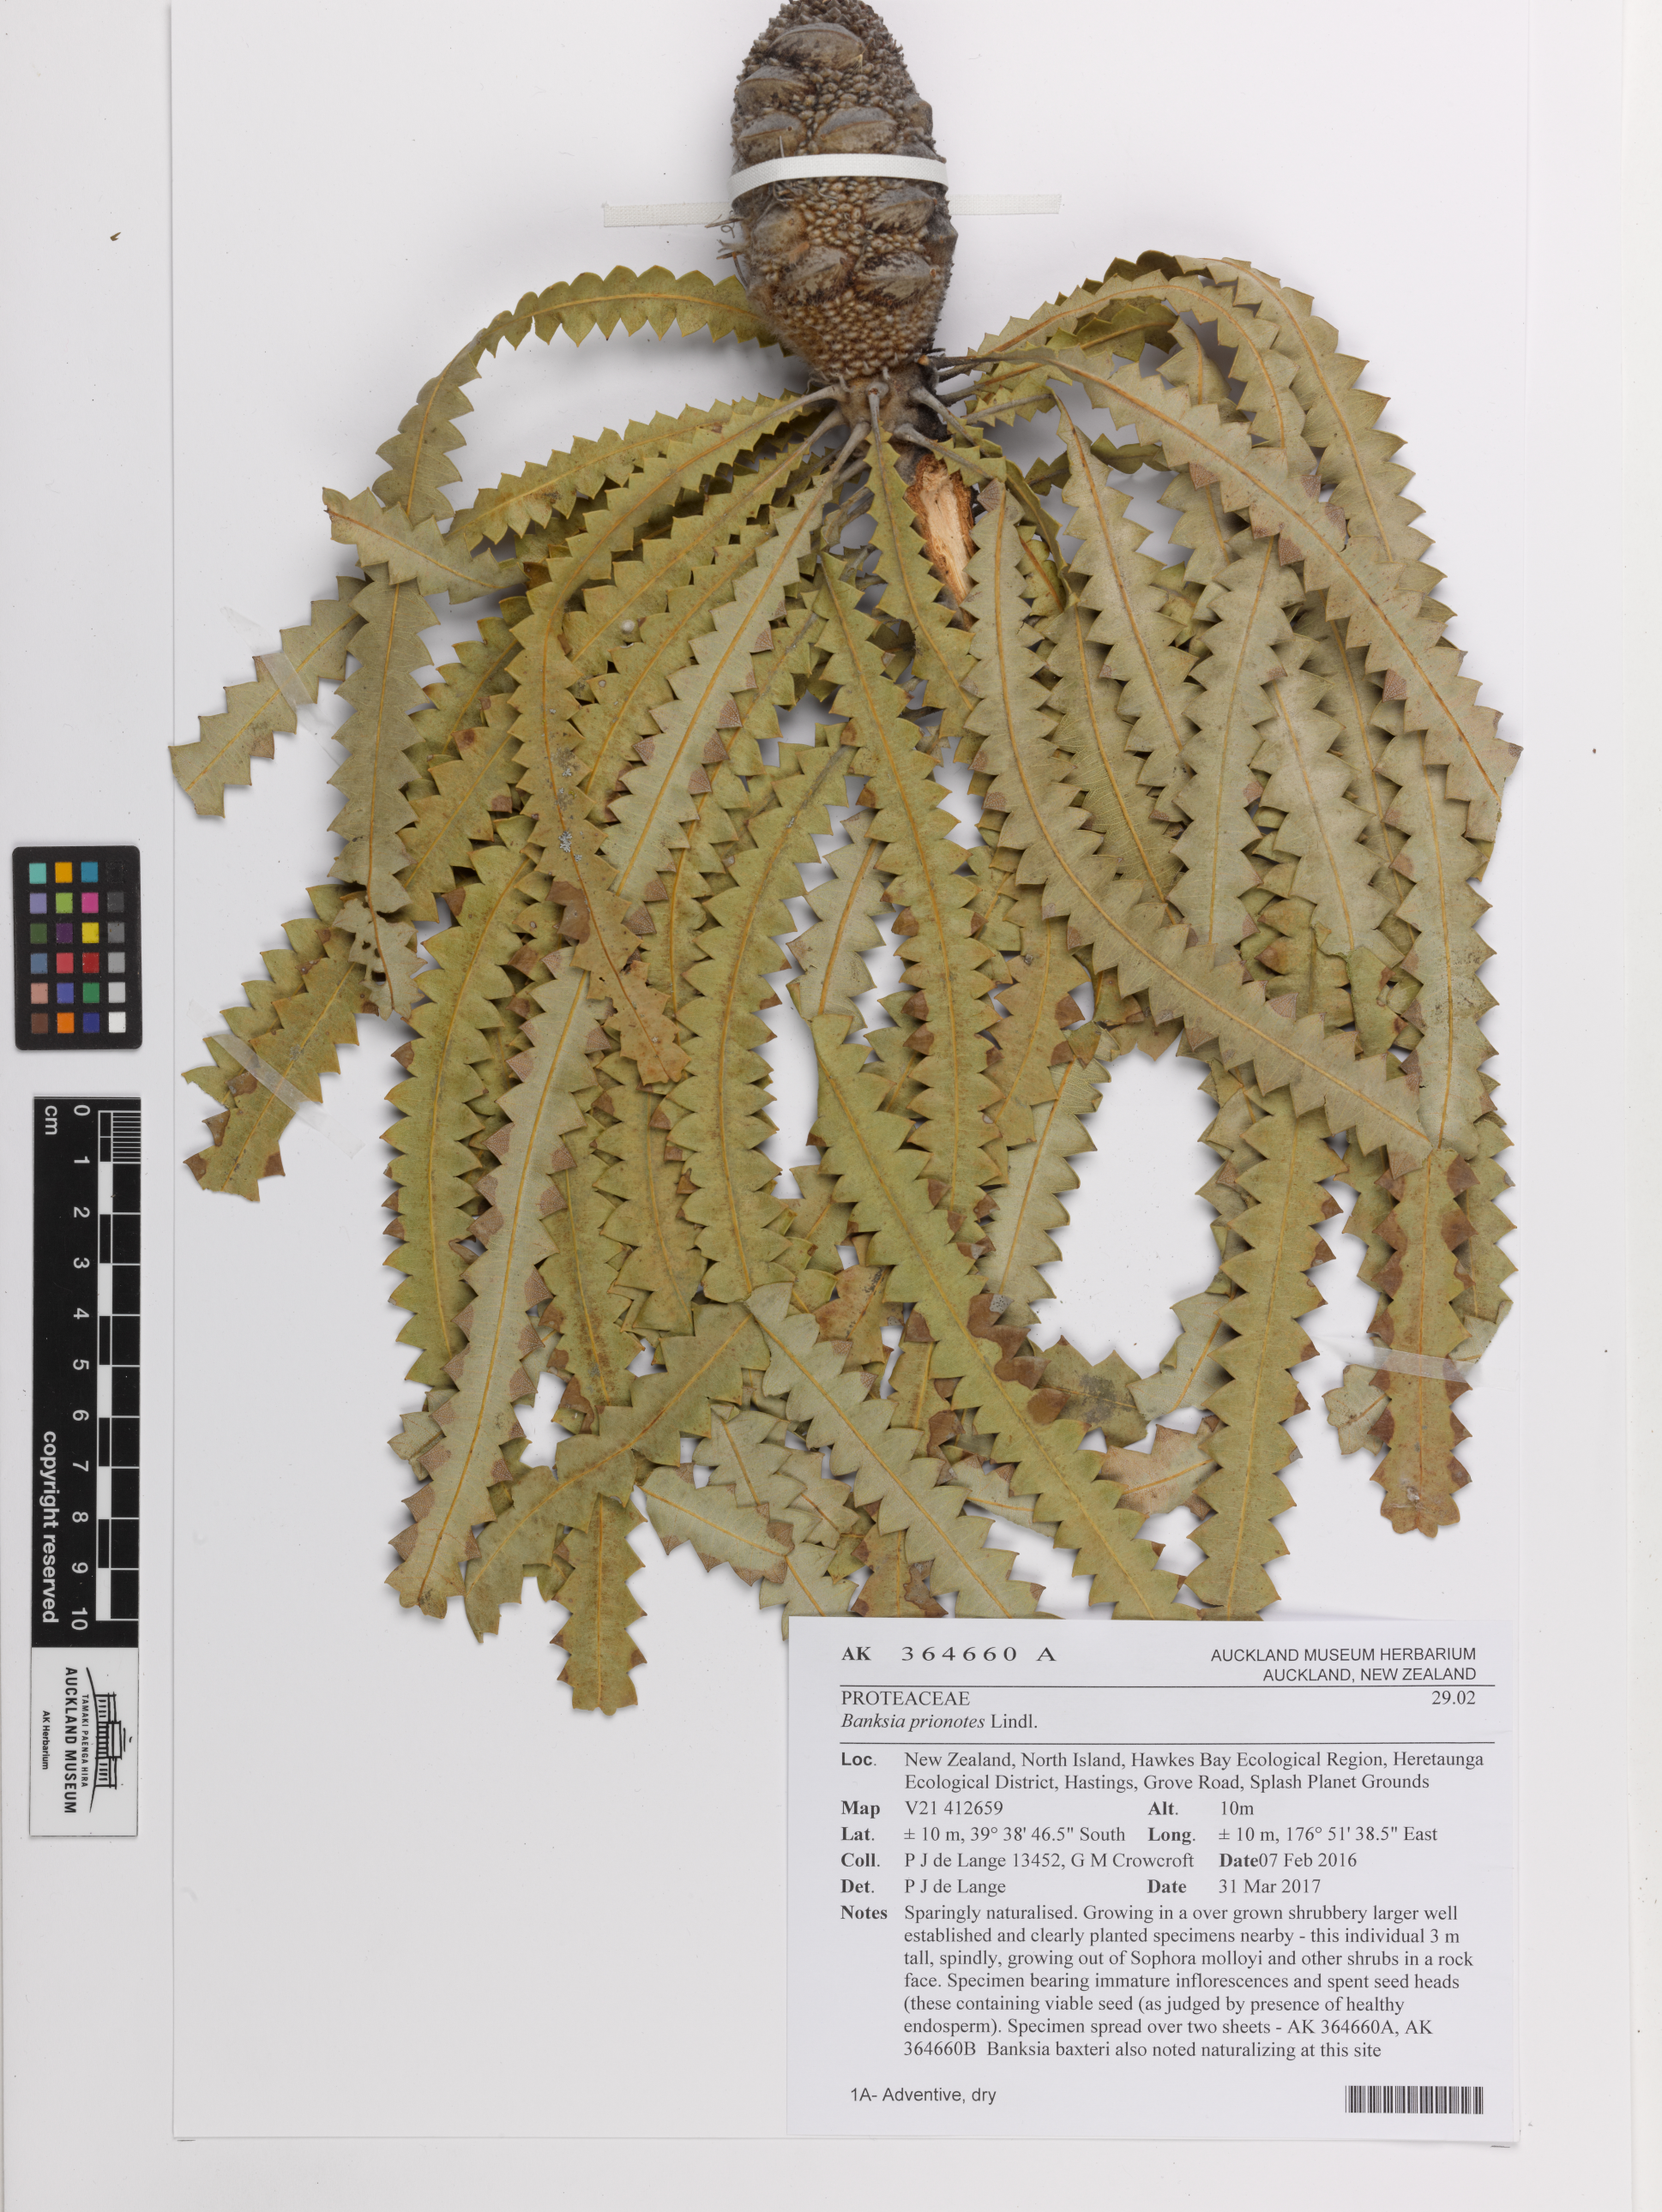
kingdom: Plantae
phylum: Tracheophyta
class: Magnoliopsida
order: Proteales
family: Proteaceae
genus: Banksia
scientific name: Banksia prionotes
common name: Acorn banksia
